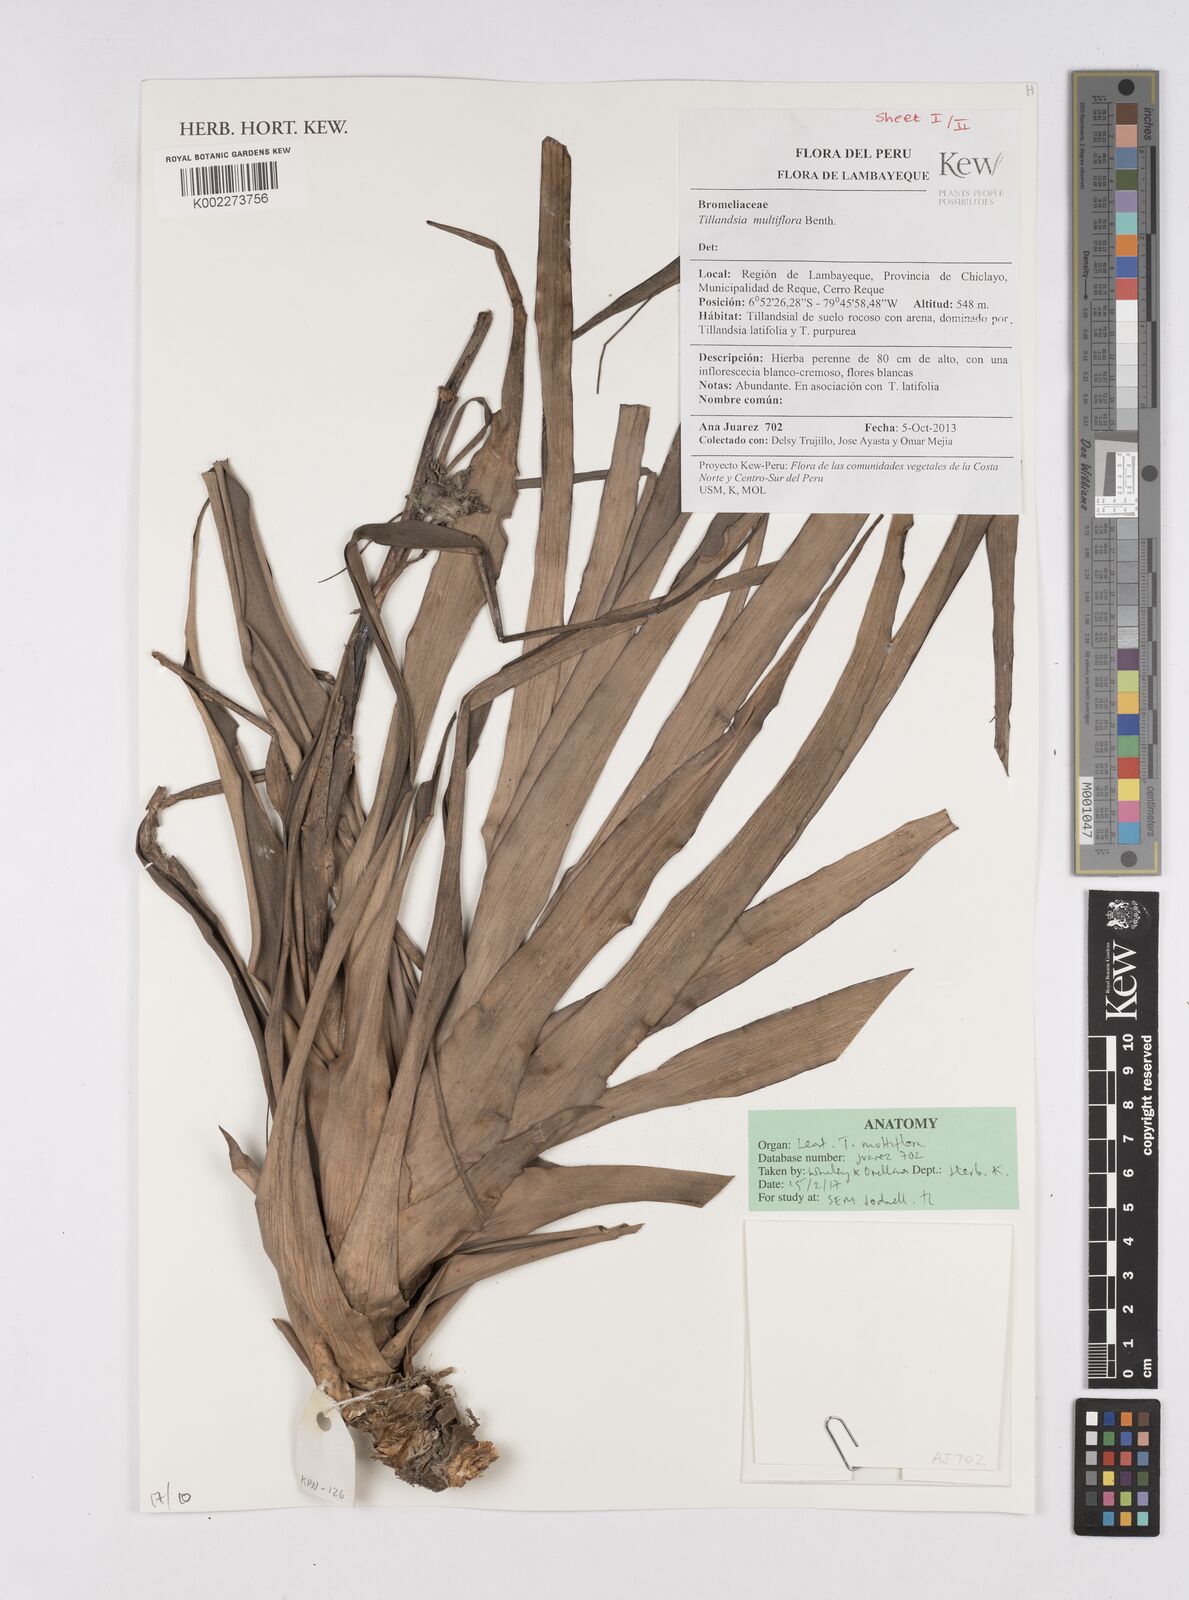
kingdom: Plantae
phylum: Tracheophyta
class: Liliopsida
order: Poales
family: Bromeliaceae
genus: Racinaea
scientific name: Racinaea multiflora
